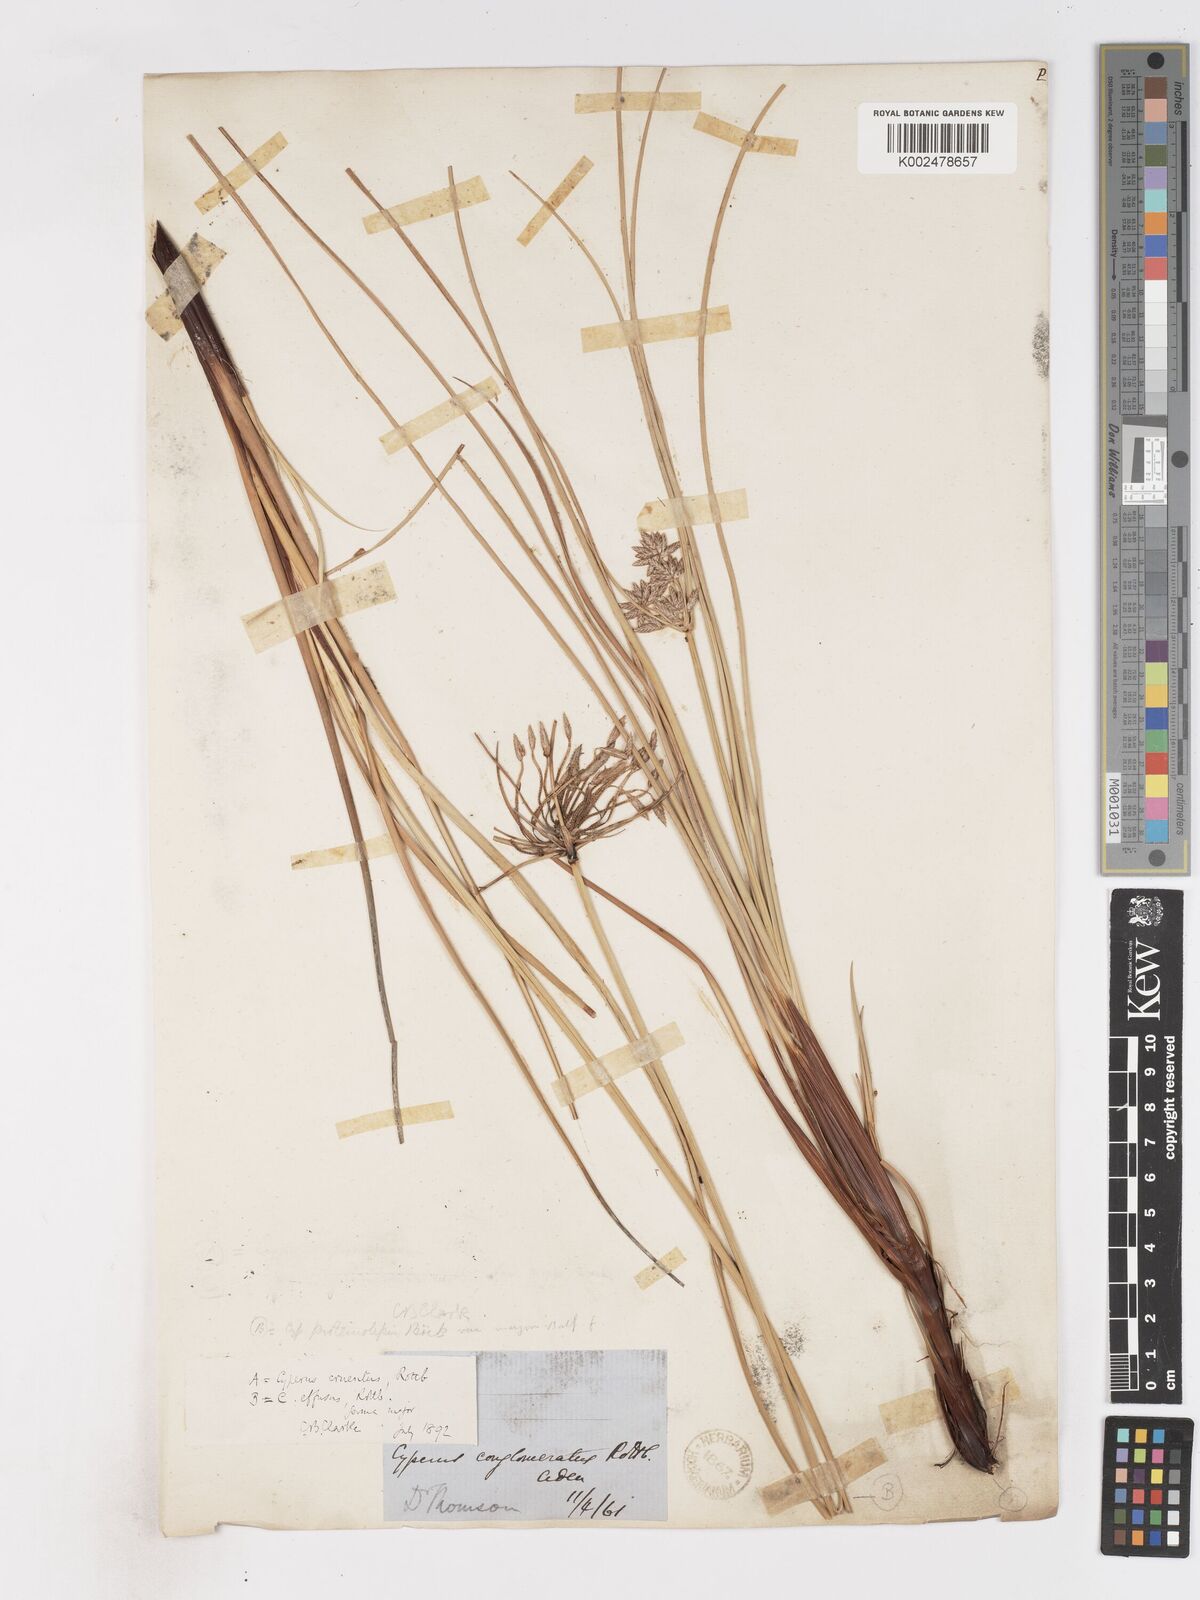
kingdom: Plantae
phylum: Tracheophyta
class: Liliopsida
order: Poales
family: Cyperaceae
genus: Cyperus
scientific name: Cyperus conglomeratus
